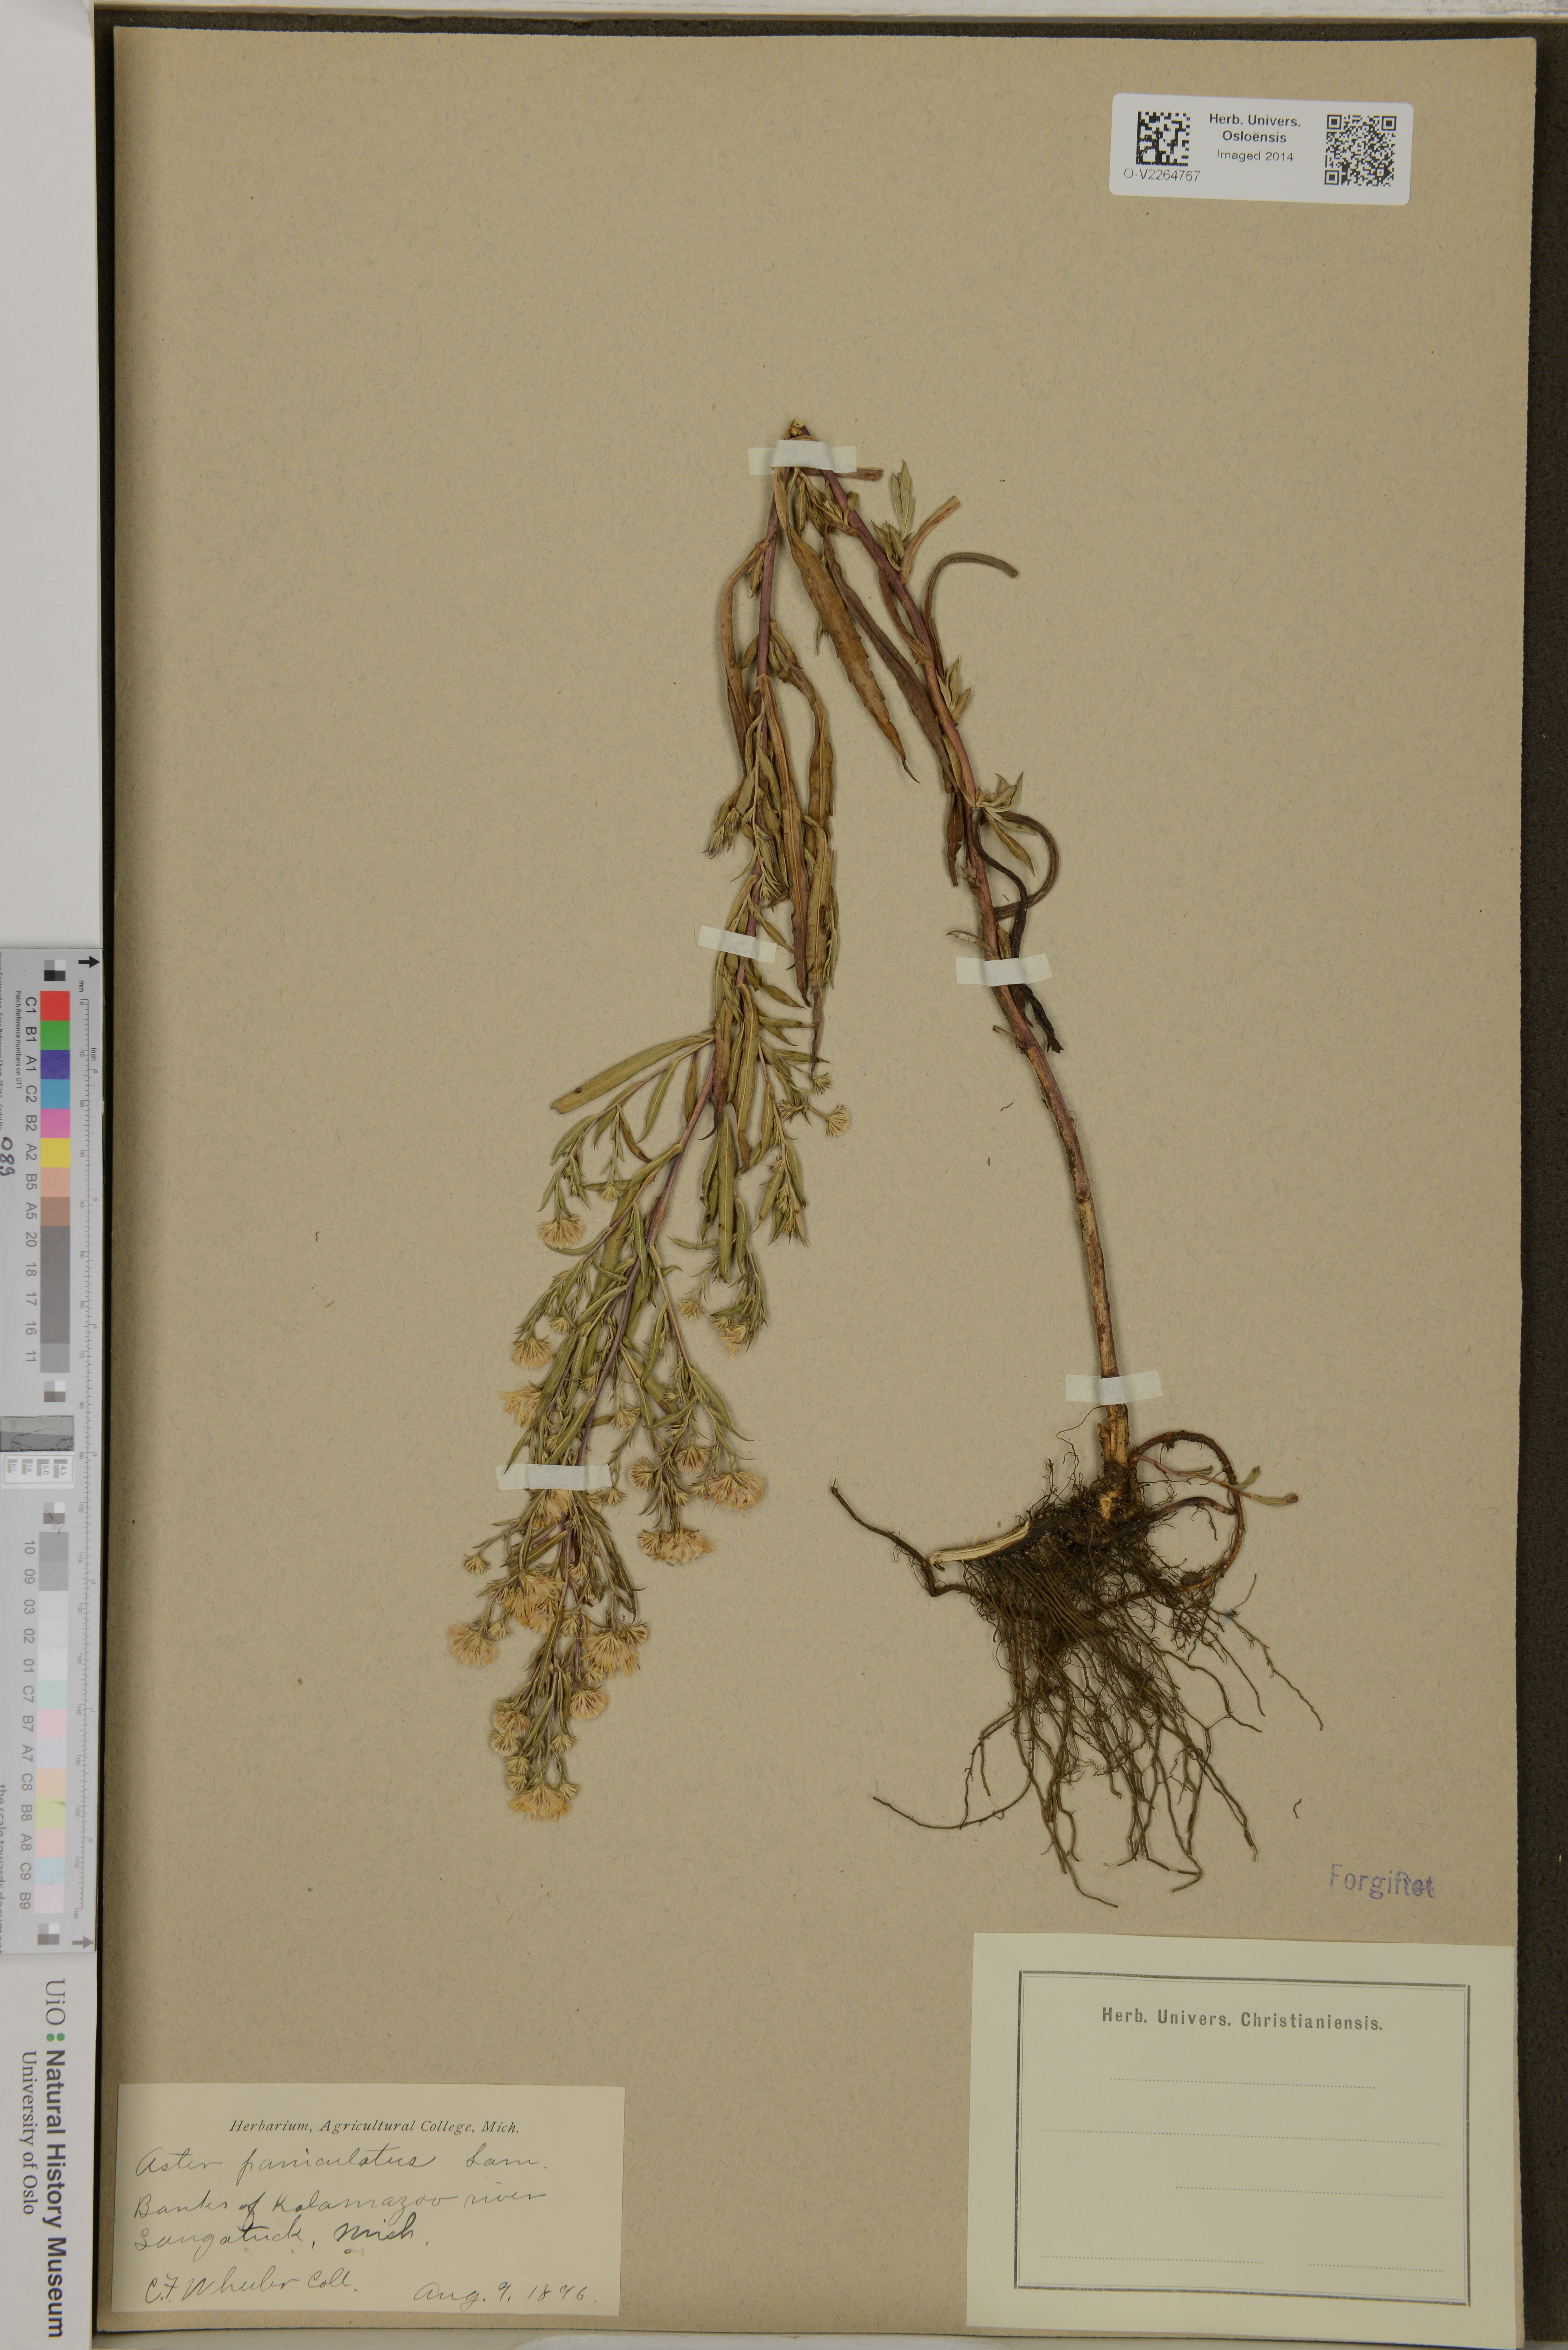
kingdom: Plantae
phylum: Tracheophyta
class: Magnoliopsida
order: Asterales
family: Asteraceae
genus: Aster
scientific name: Aster paniculatus
